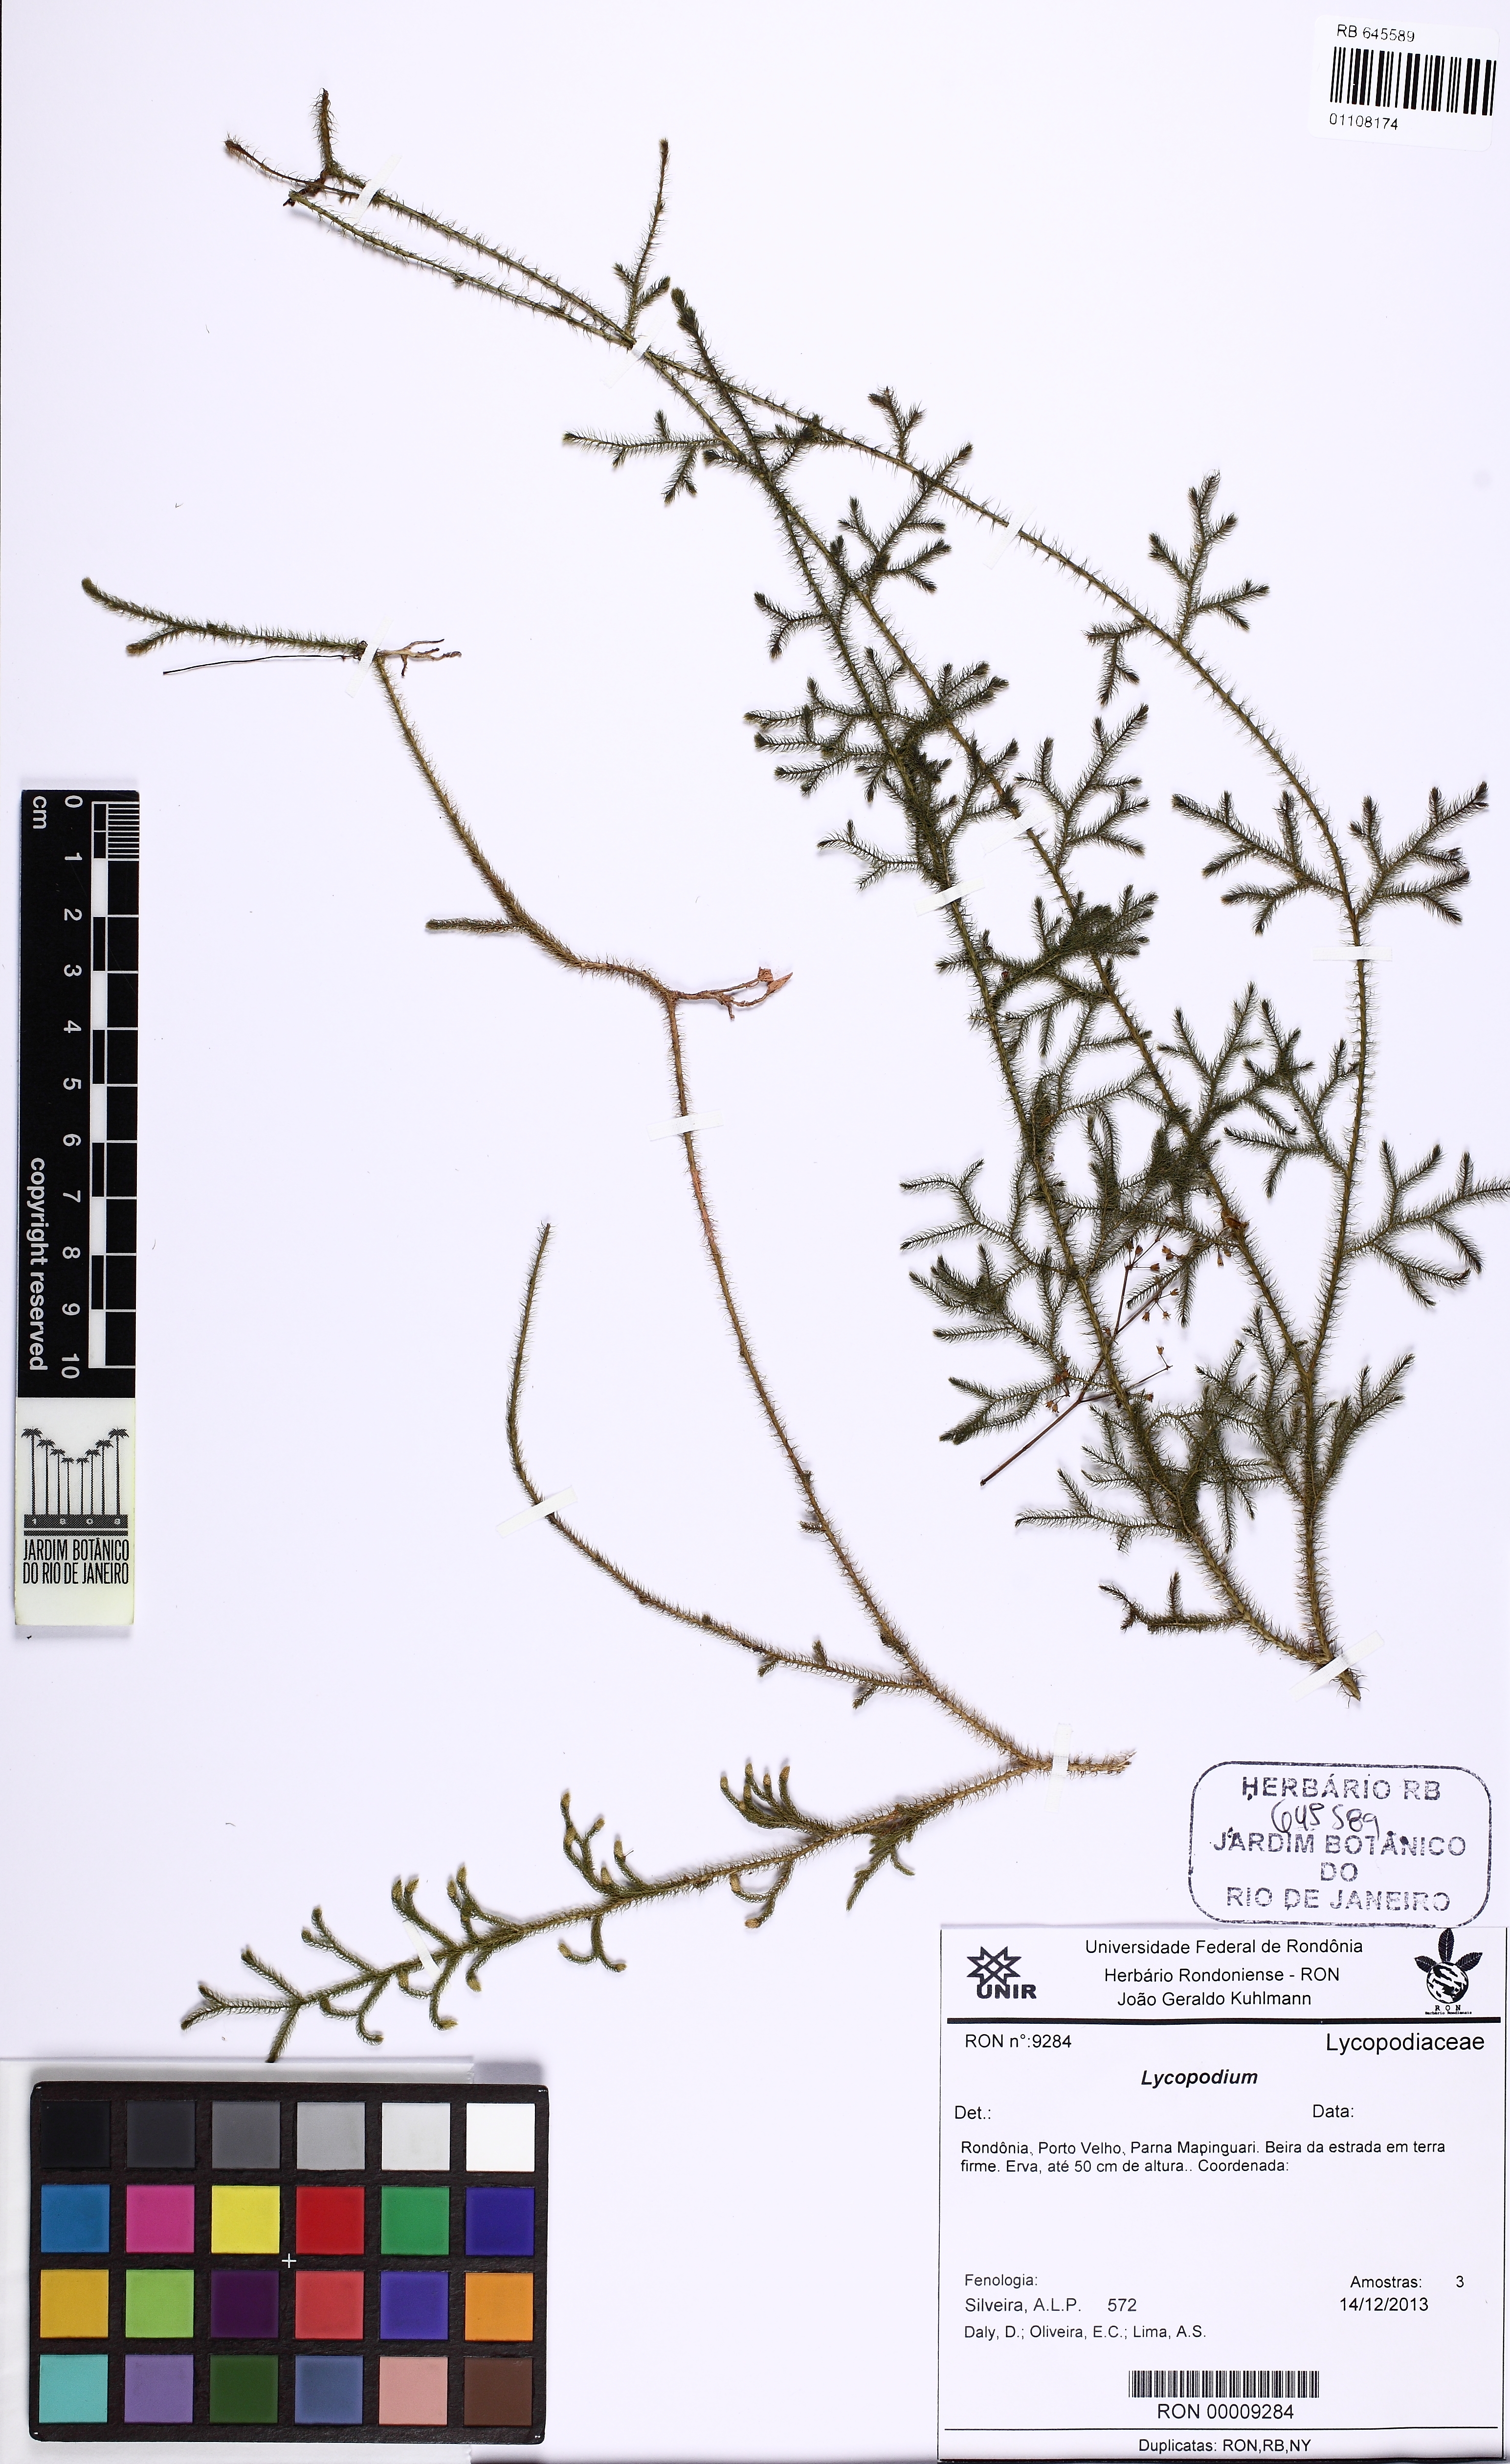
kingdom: Plantae
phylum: Tracheophyta
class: Lycopodiopsida
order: Lycopodiales
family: Lycopodiaceae
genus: Lycopodium
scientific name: Lycopodium
